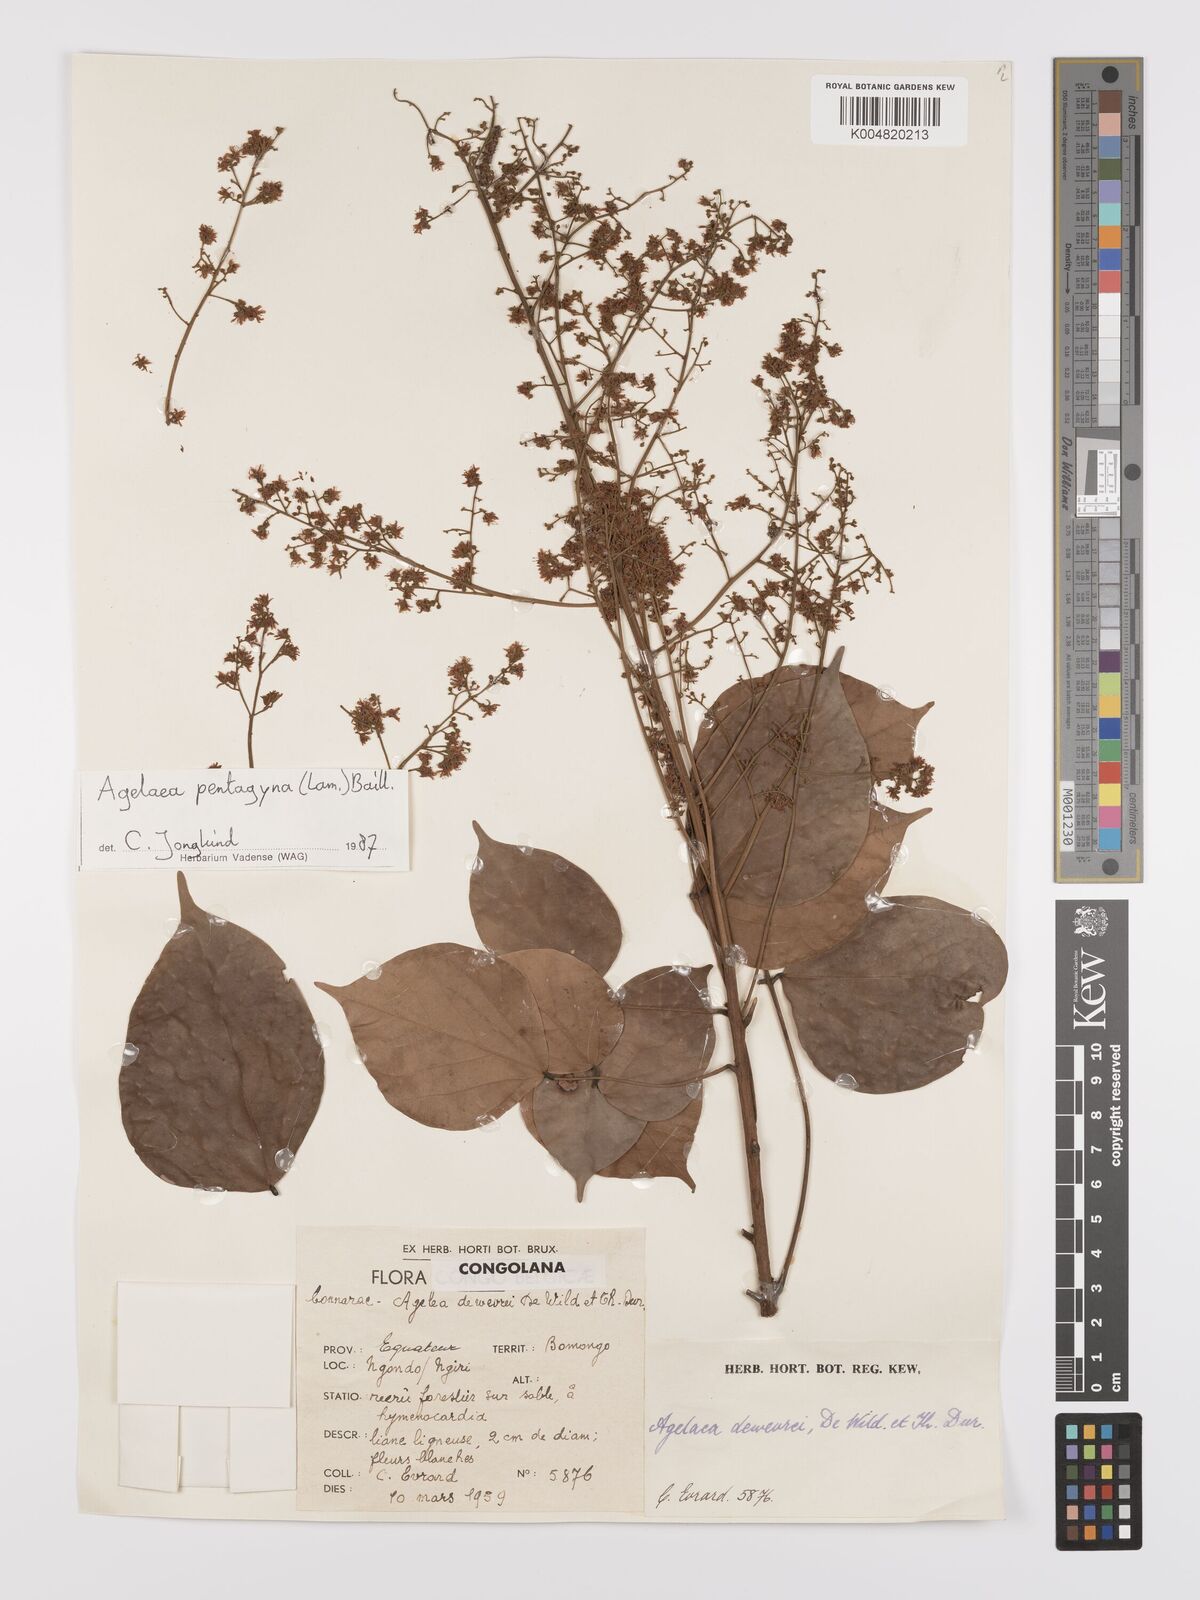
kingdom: Plantae
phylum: Tracheophyta
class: Magnoliopsida
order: Oxalidales
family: Connaraceae
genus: Agelaea
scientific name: Agelaea pentagyna
